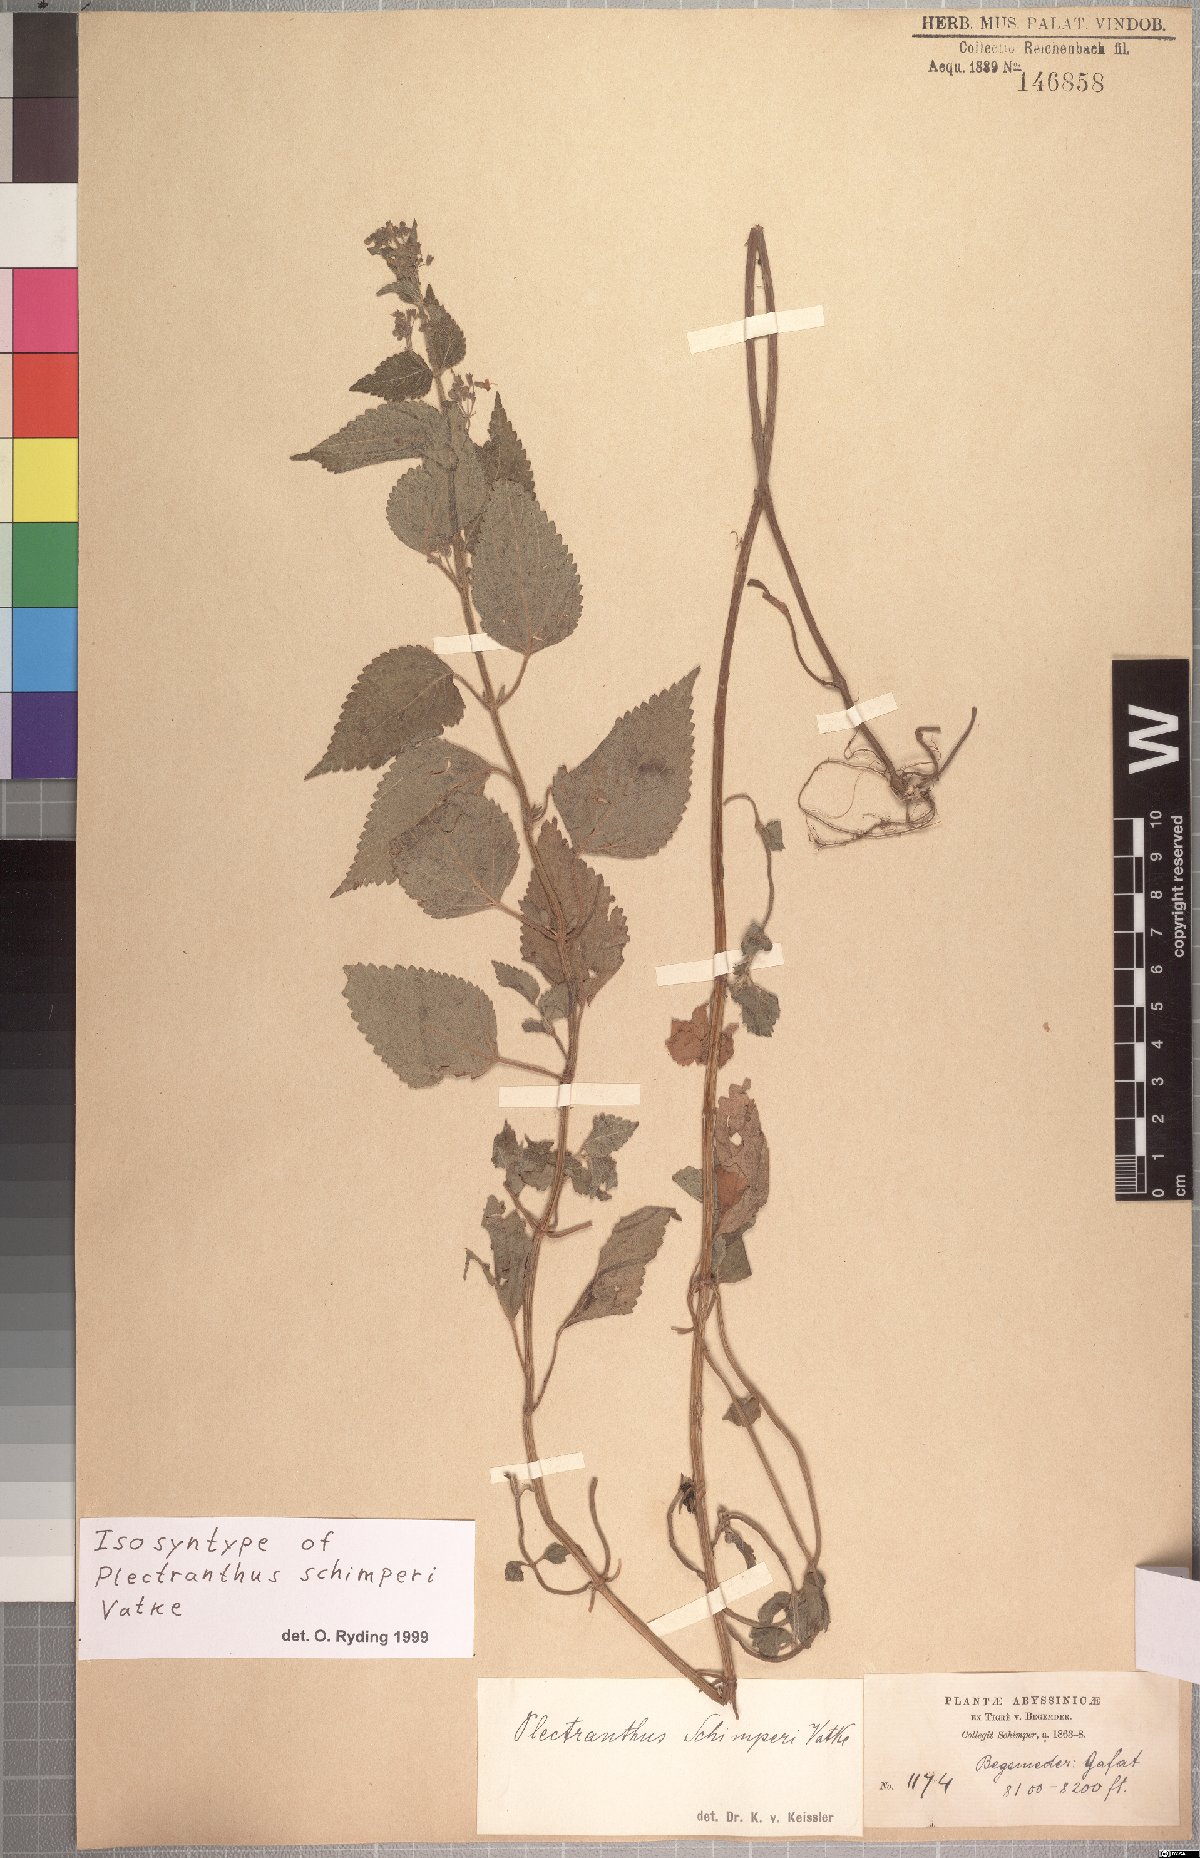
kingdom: Plantae
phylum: Tracheophyta
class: Magnoliopsida
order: Lamiales
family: Lamiaceae
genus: Isodon
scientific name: Isodon schimperi
